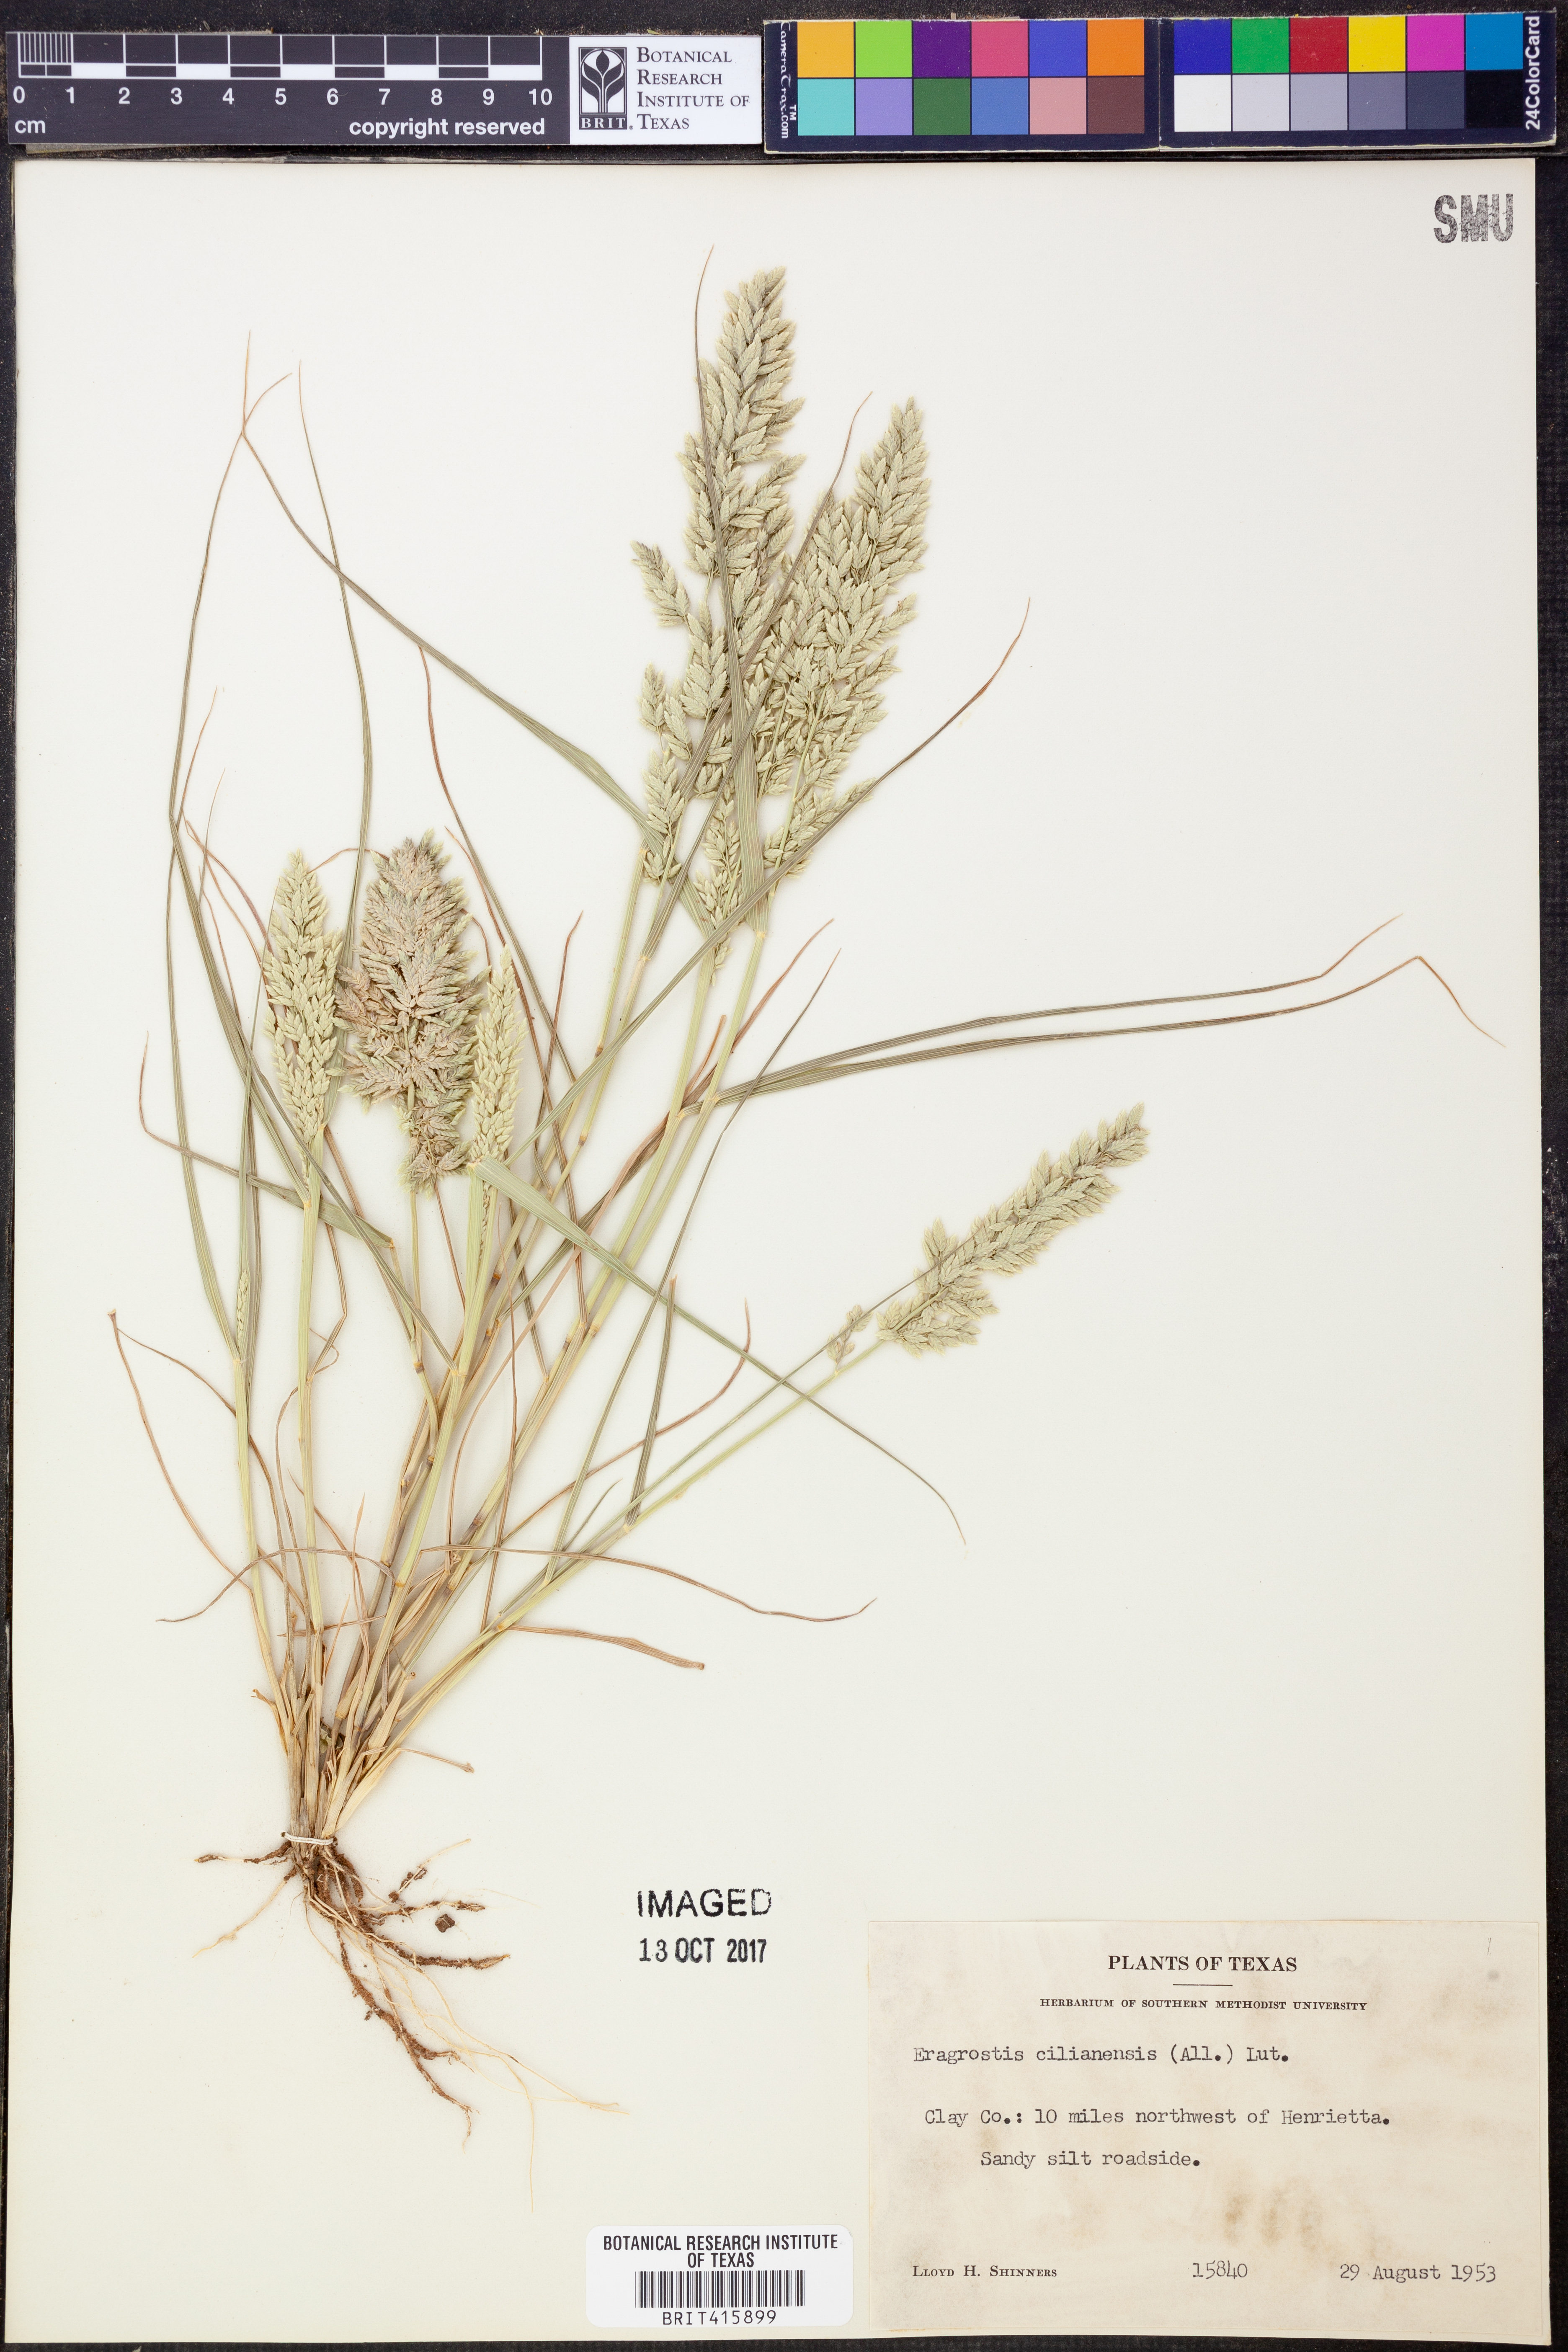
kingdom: Plantae
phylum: Tracheophyta
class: Liliopsida
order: Poales
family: Poaceae
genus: Eragrostis
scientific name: Eragrostis cilianensis
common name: Stinkgrass
